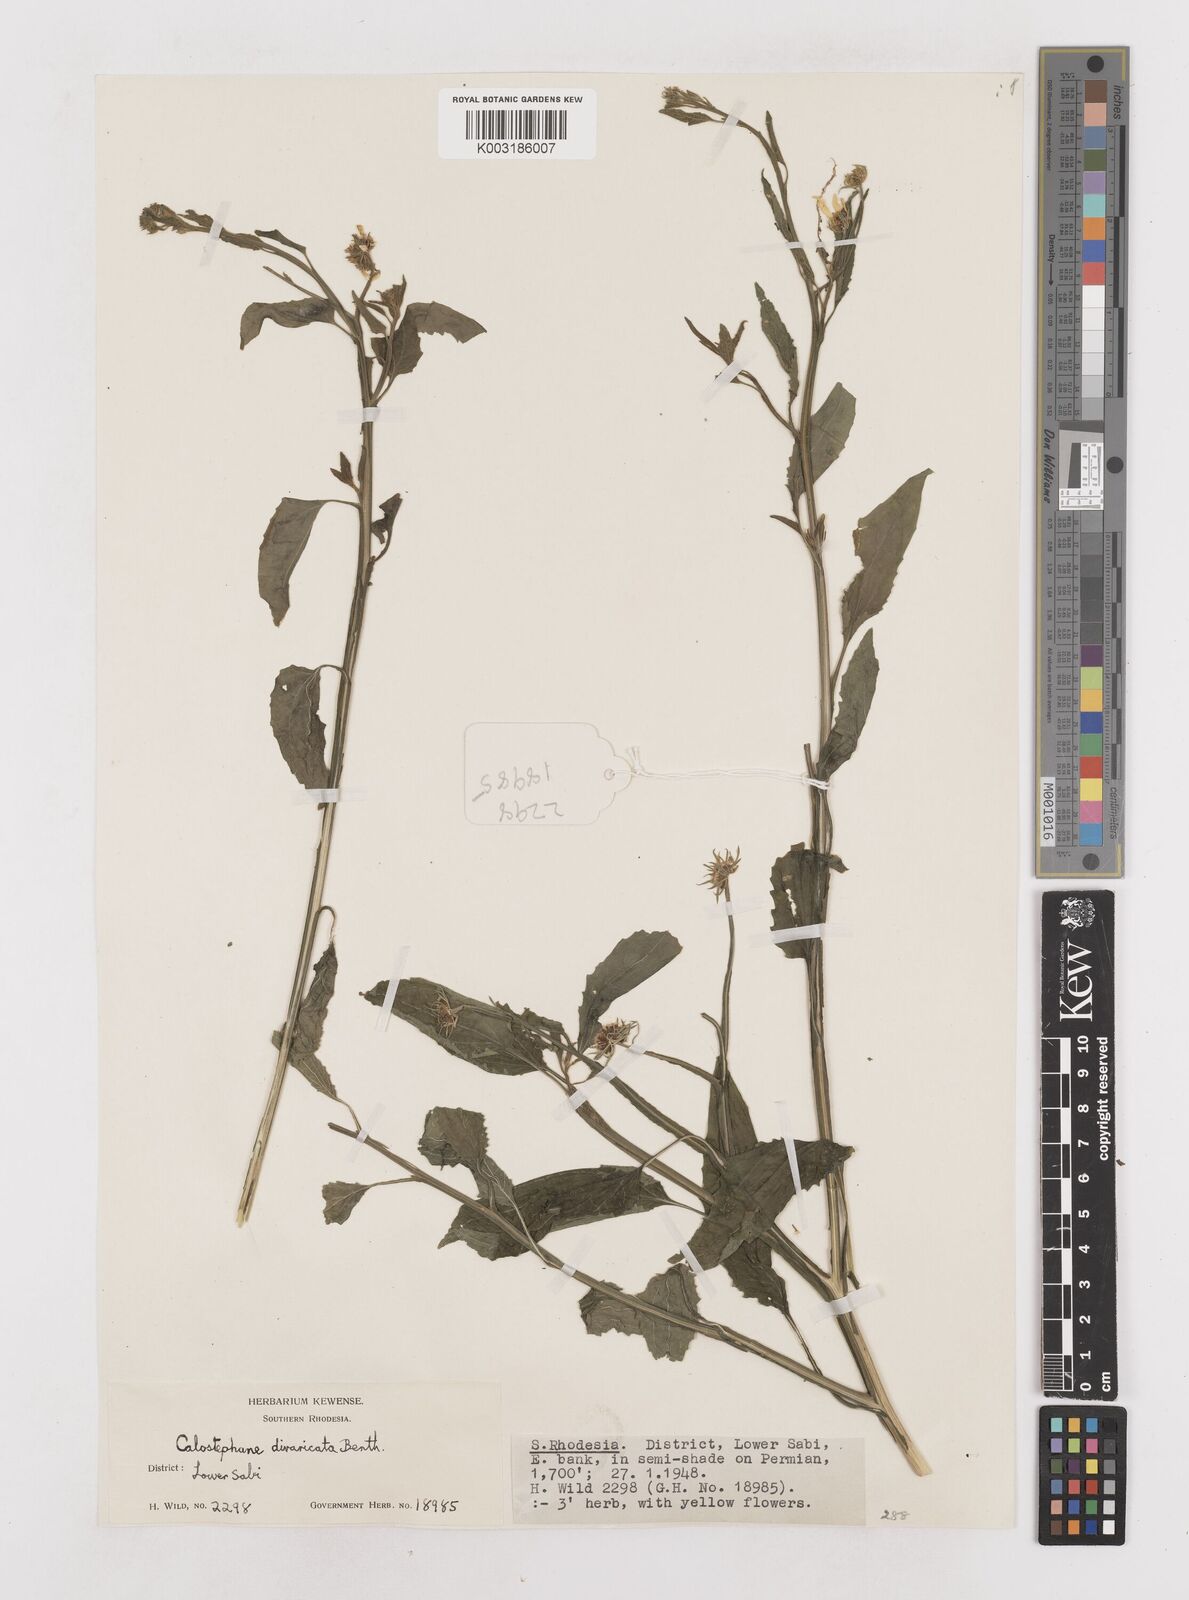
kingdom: Plantae
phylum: Tracheophyta
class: Magnoliopsida
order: Asterales
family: Asteraceae
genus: Calostephane
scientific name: Calostephane divaricata
